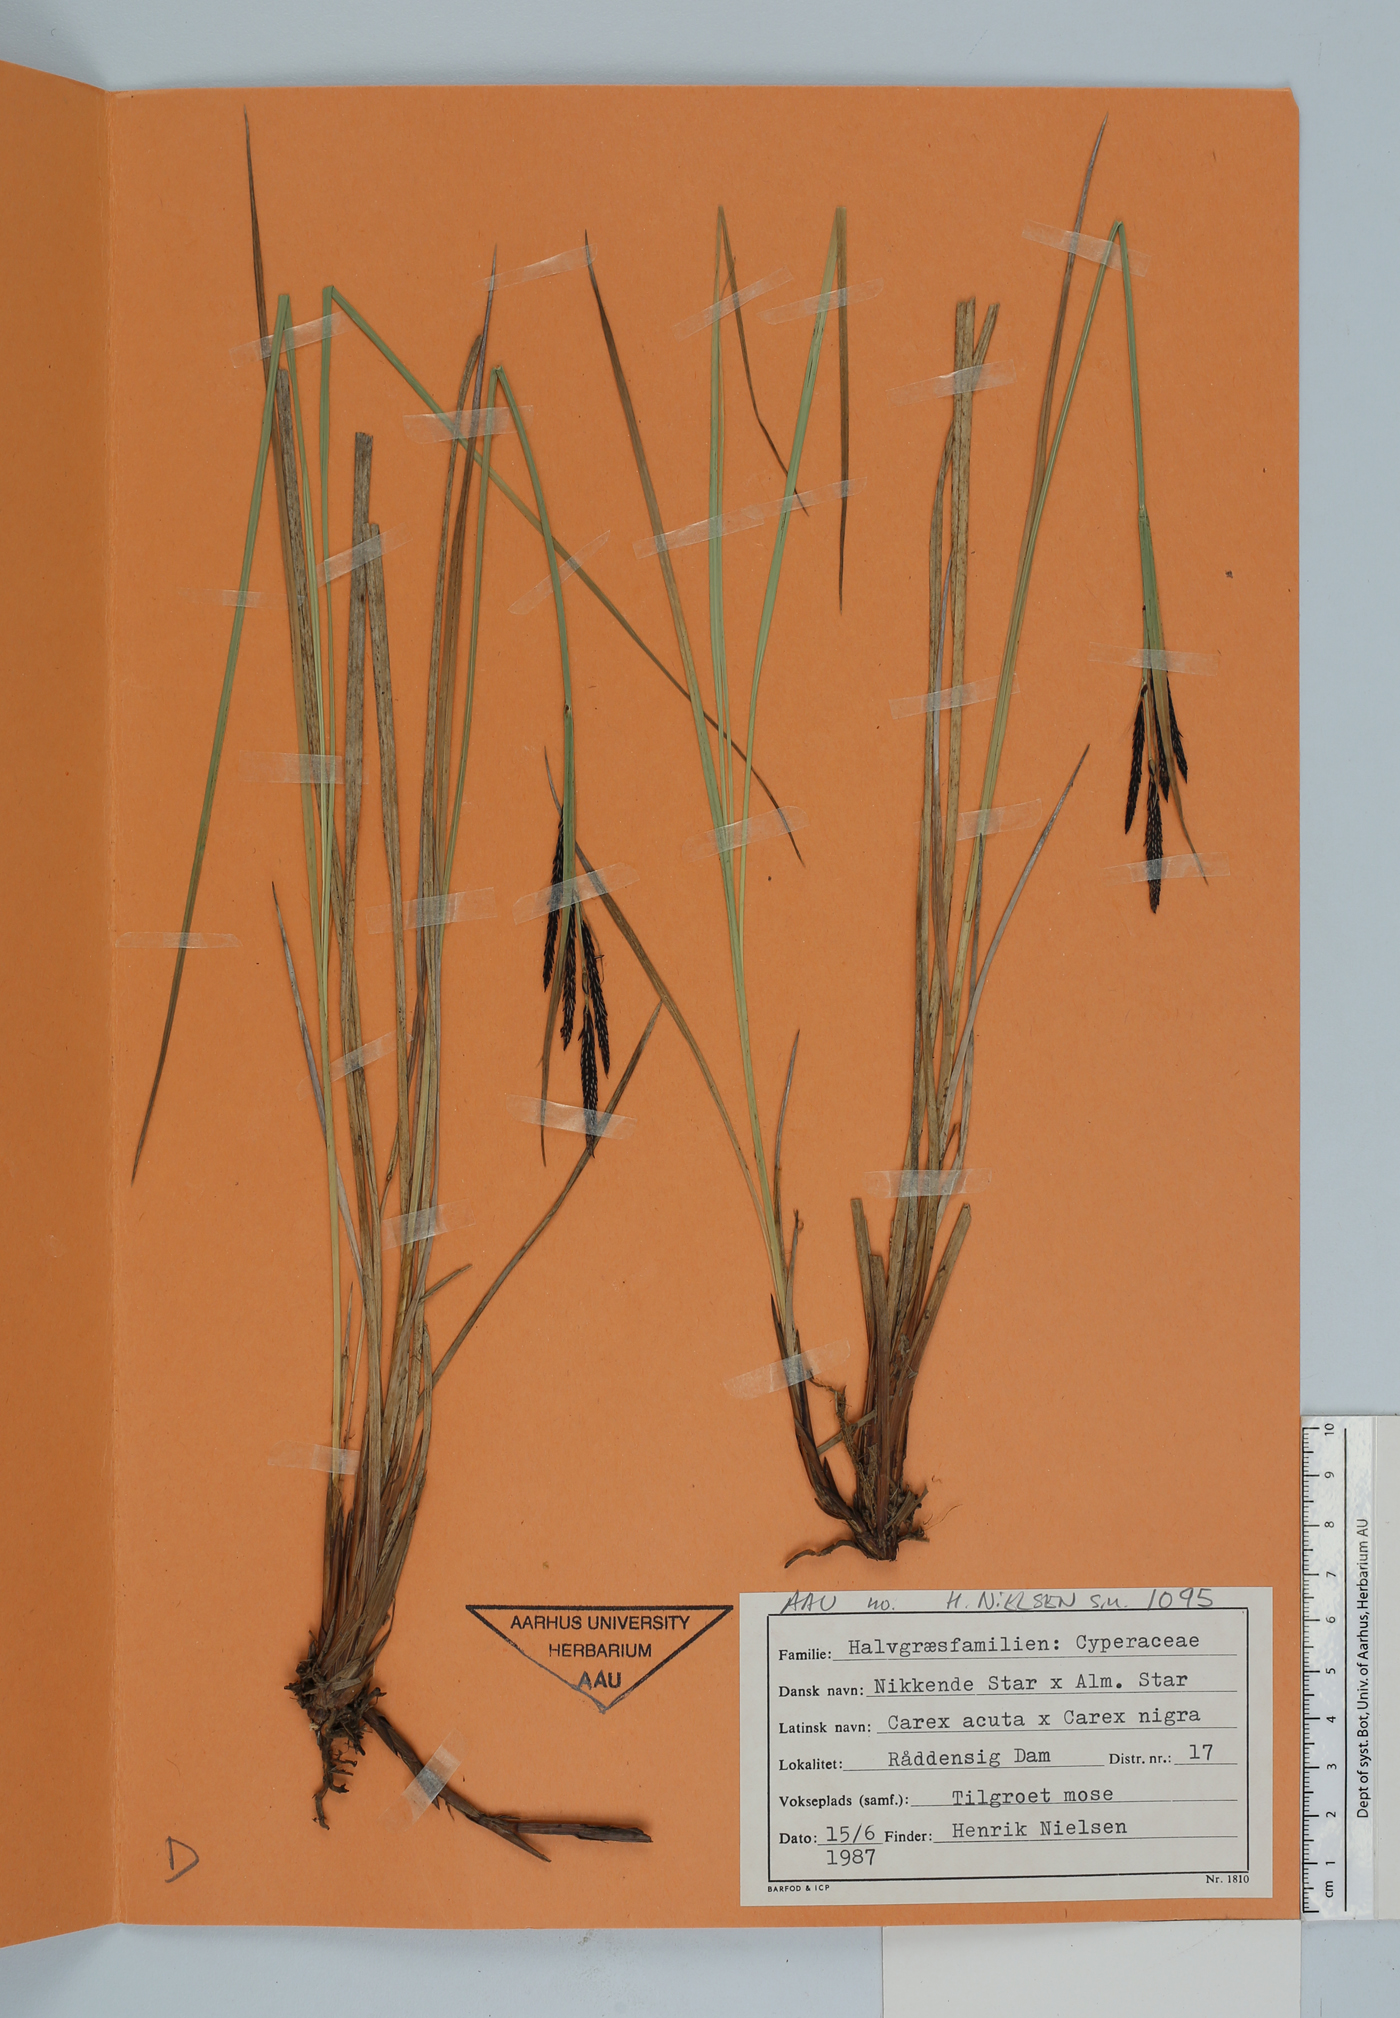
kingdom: Plantae
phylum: Tracheophyta
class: Liliopsida
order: Poales
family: Cyperaceae
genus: Carex
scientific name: Carex
